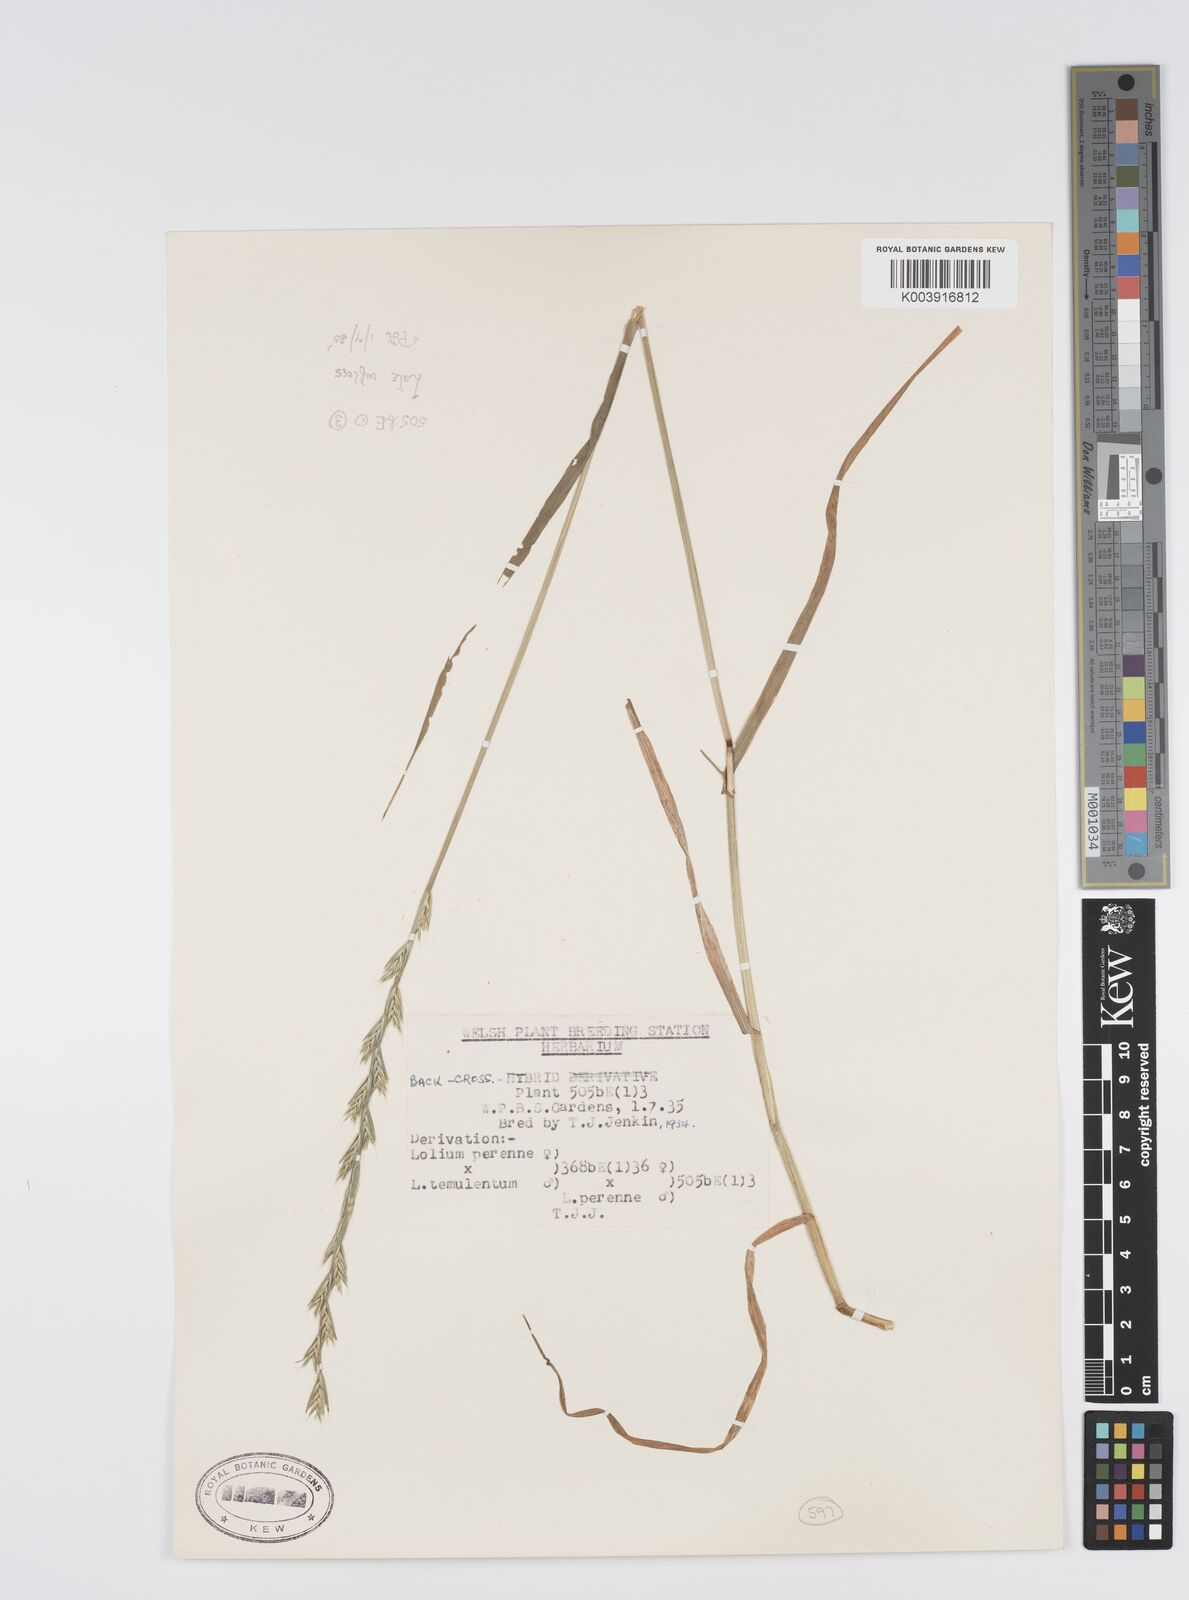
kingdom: Plantae
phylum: Tracheophyta
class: Liliopsida
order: Poales
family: Poaceae
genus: Lolium
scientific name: Lolium perenne
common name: Perennial ryegrass
